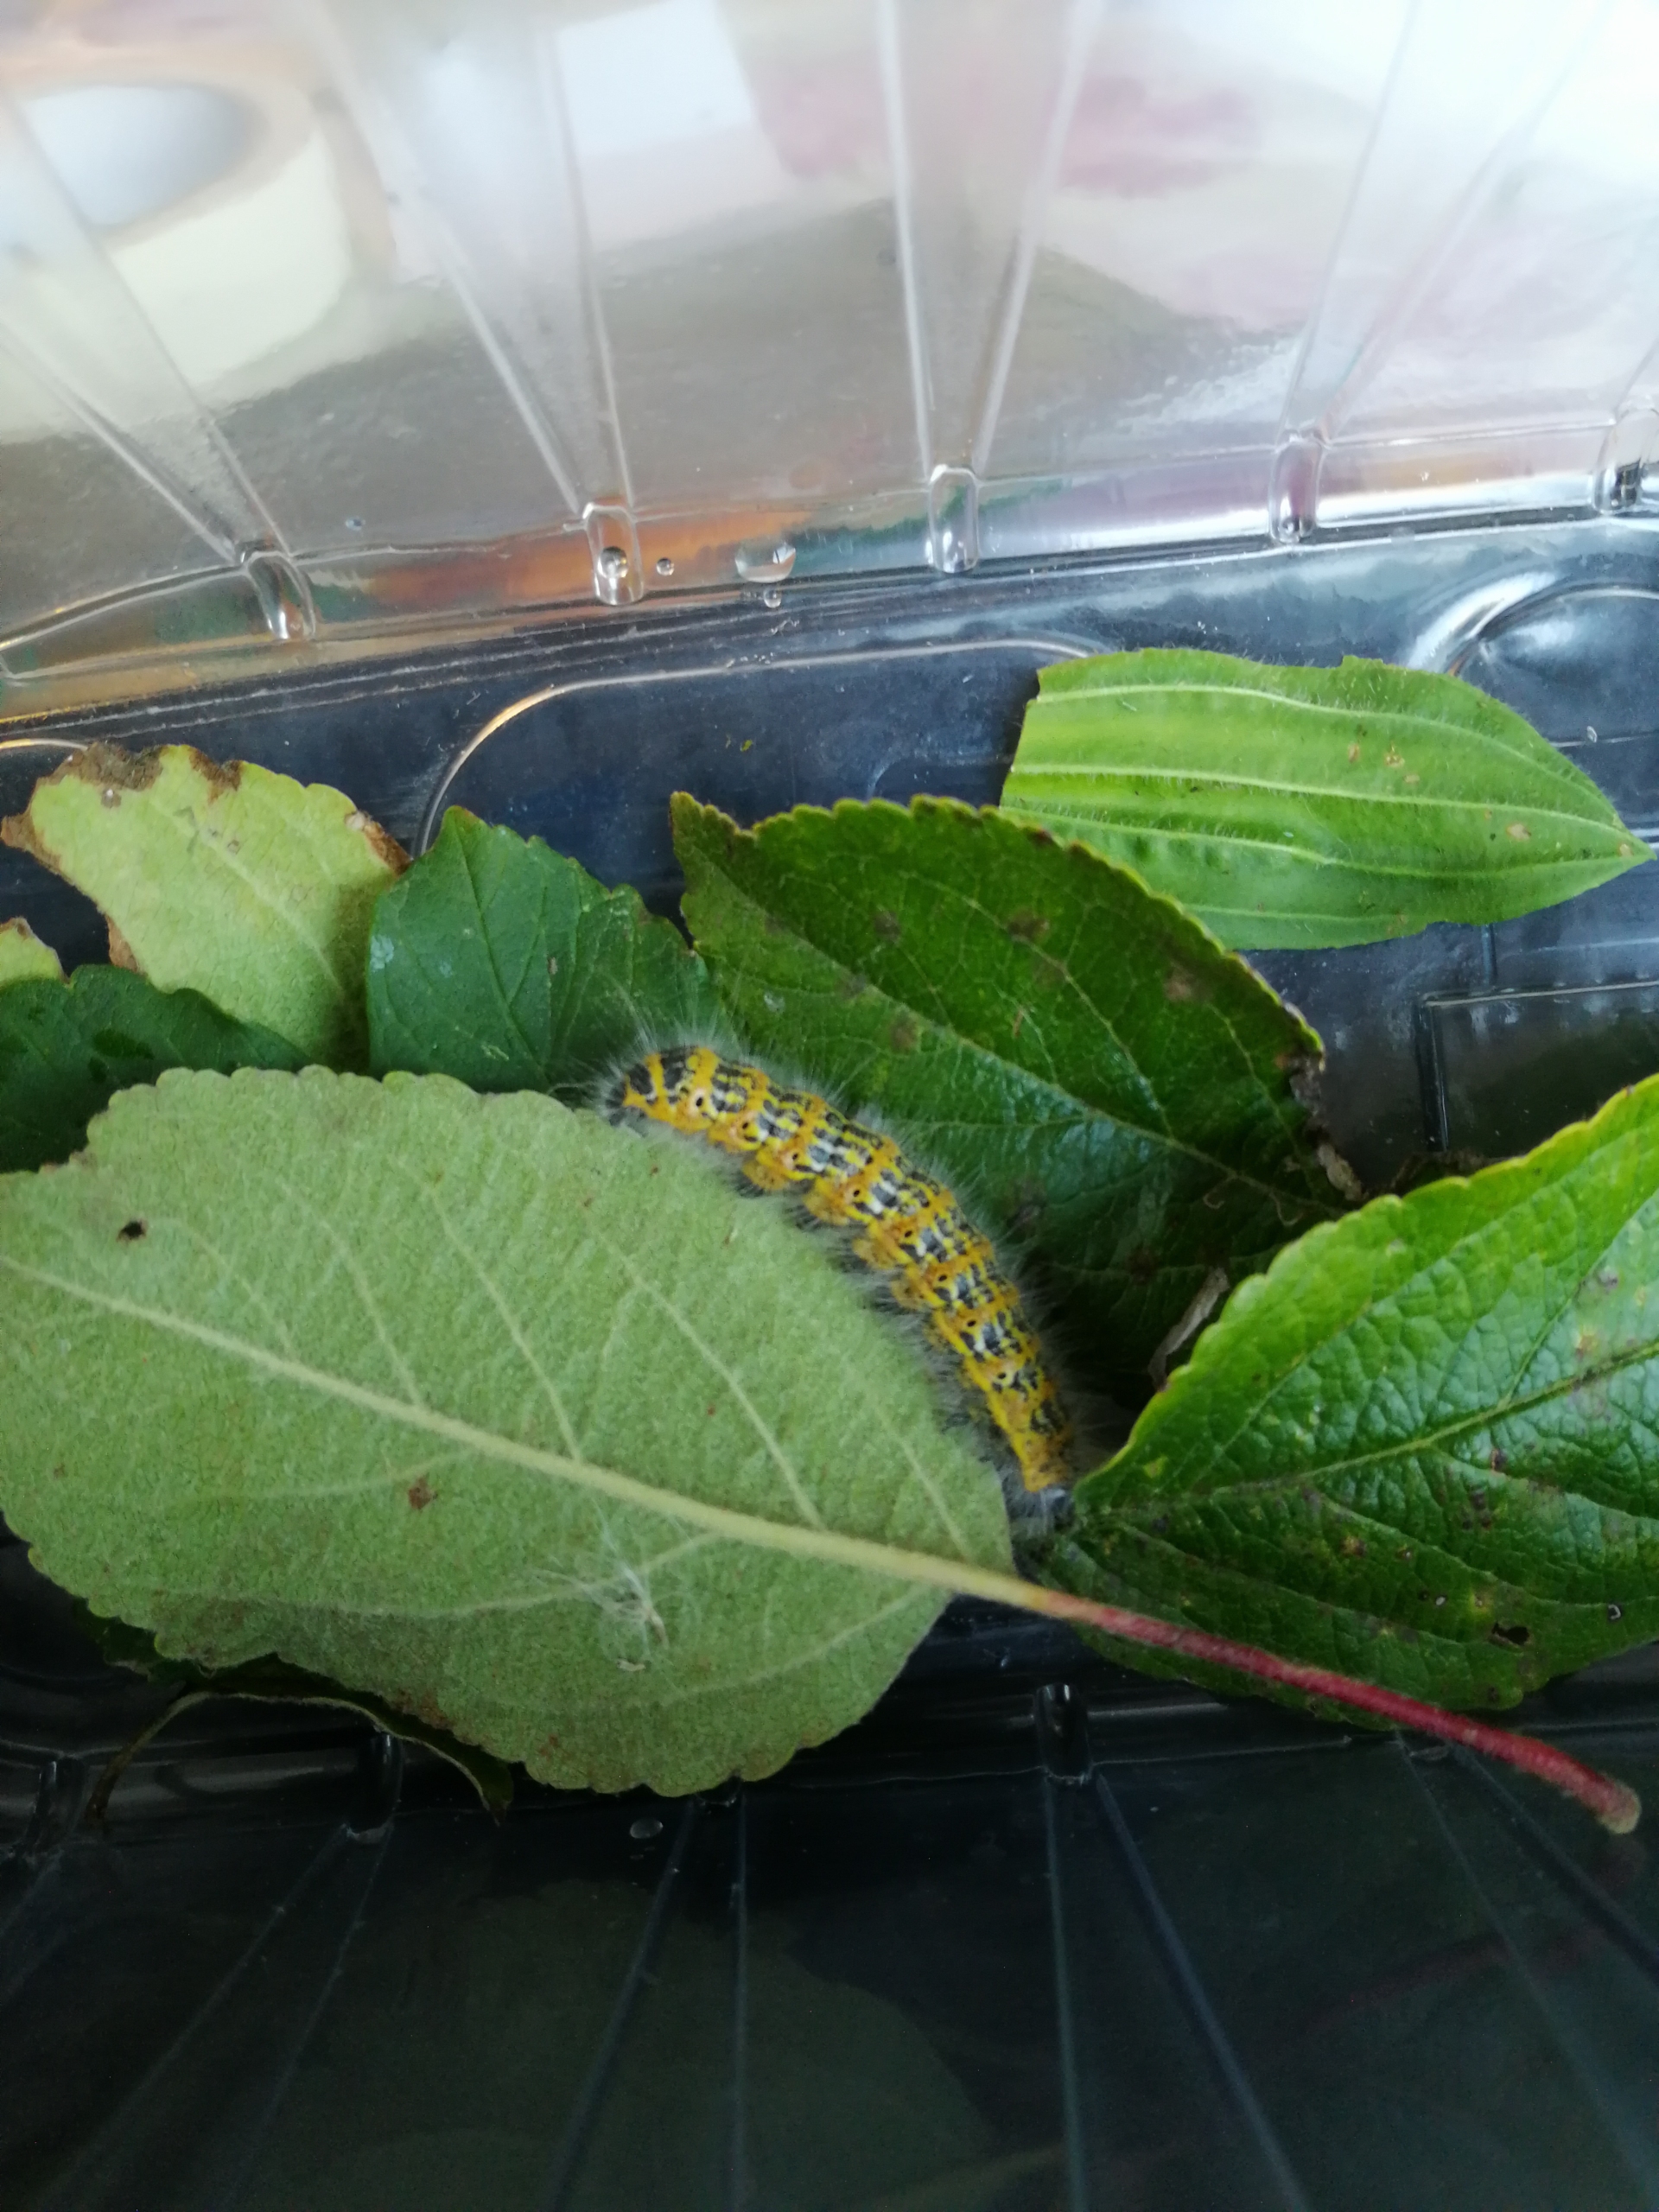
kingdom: Animalia
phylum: Arthropoda
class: Insecta
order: Lepidoptera
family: Notodontidae
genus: Phalera
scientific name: Phalera bucephala
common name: Måneplet
